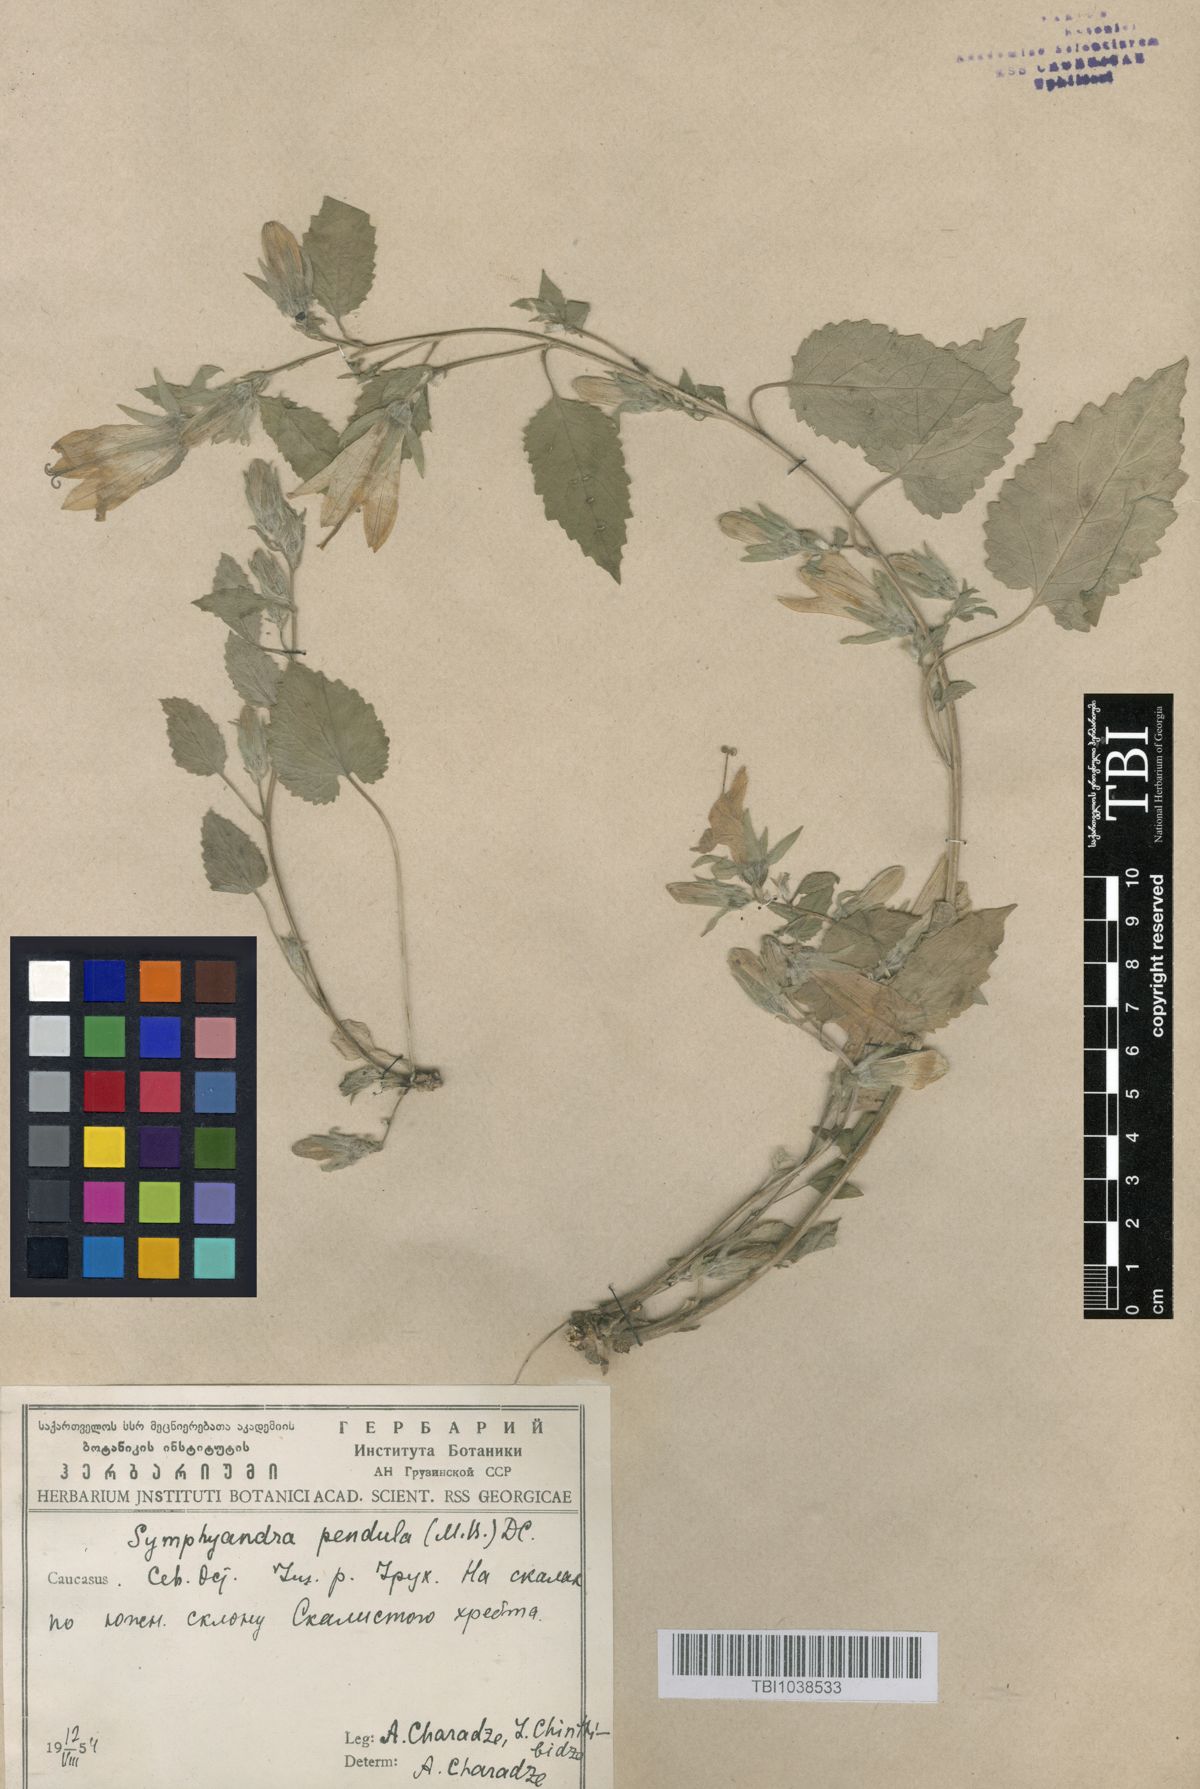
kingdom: Plantae
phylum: Tracheophyta
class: Magnoliopsida
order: Asterales
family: Campanulaceae
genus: Campanula
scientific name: Campanula pendula
